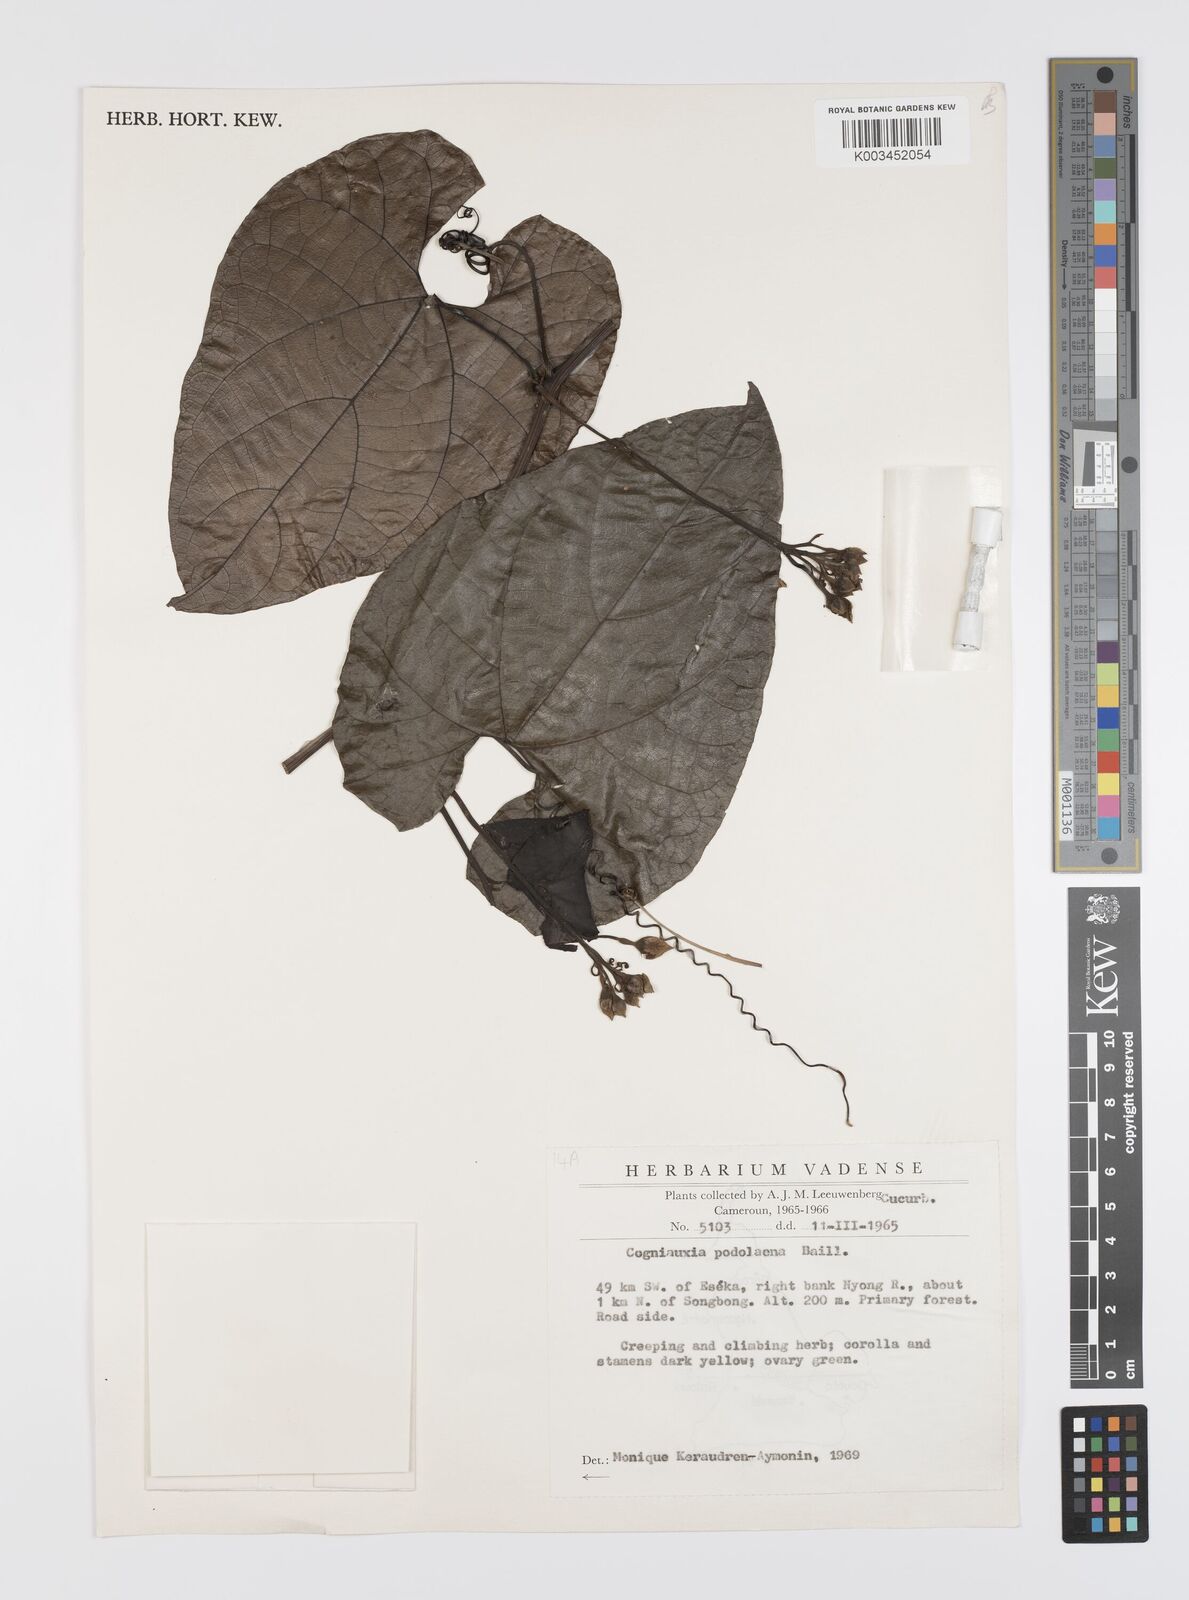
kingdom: Plantae
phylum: Tracheophyta
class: Magnoliopsida
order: Cucurbitales
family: Cucurbitaceae
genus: Cogniauxia
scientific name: Cogniauxia podolaena
